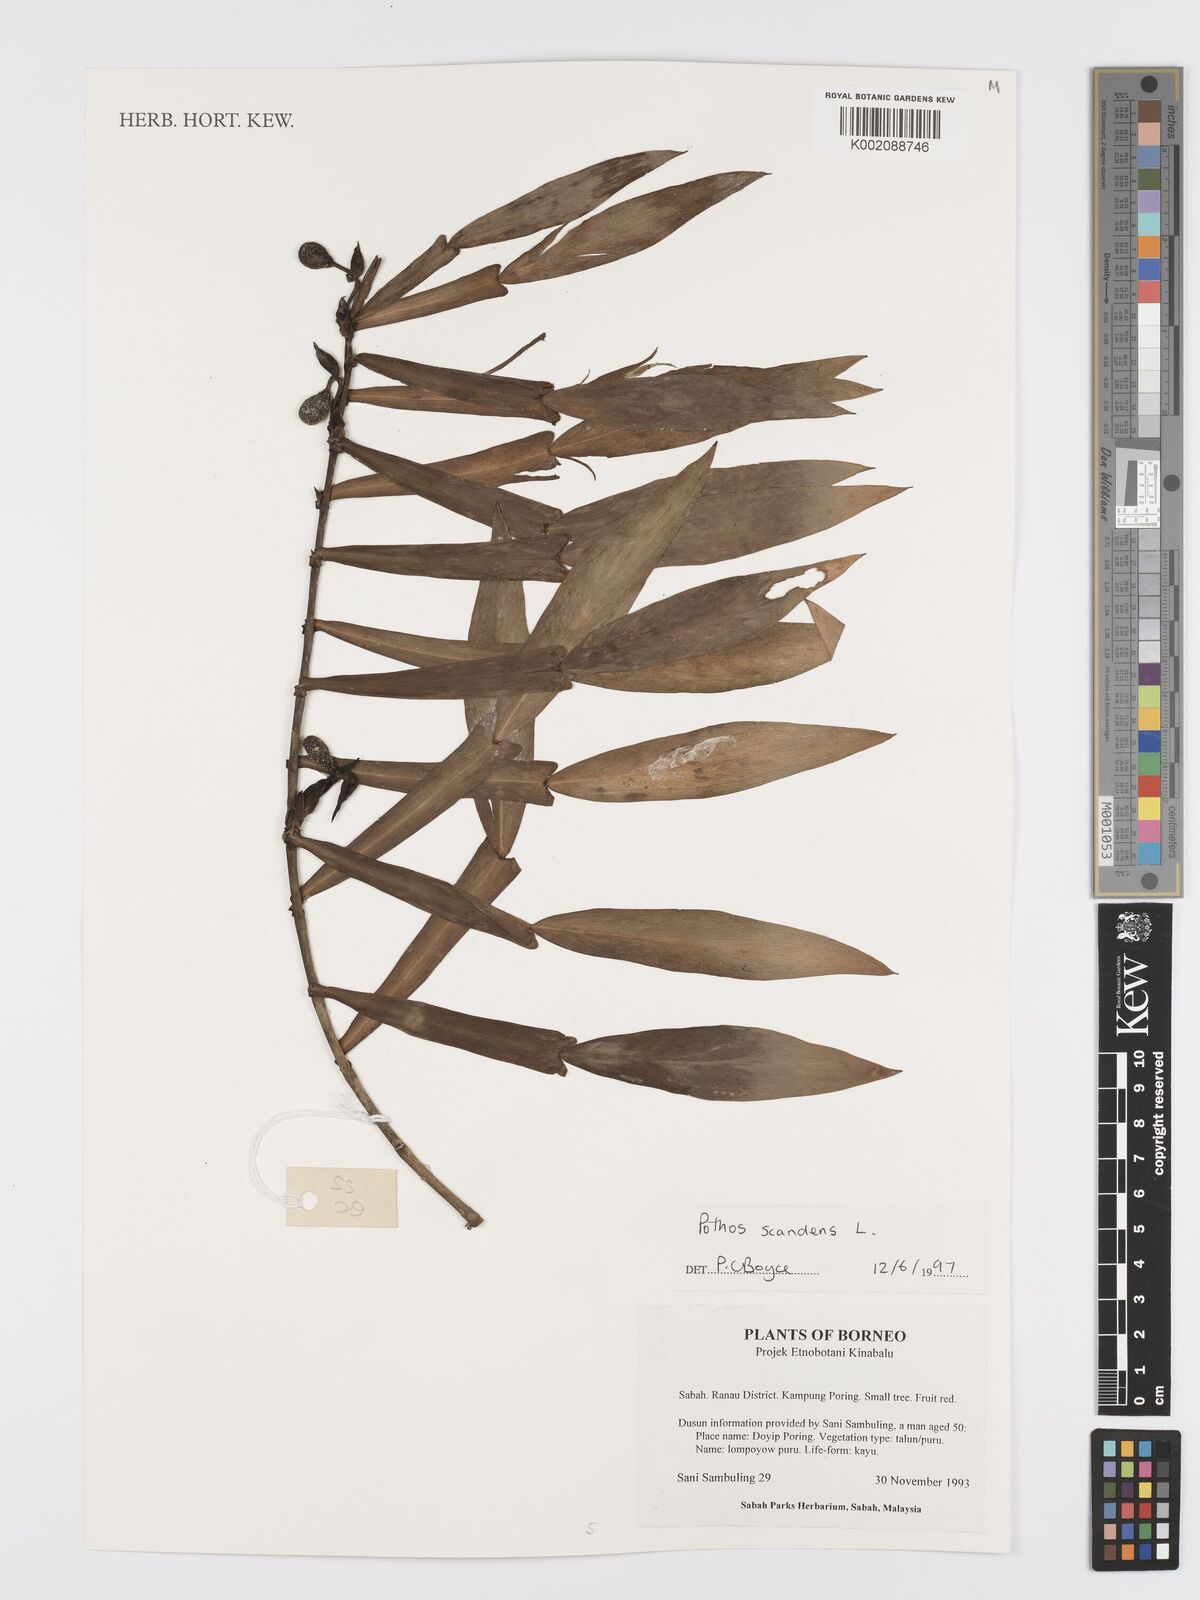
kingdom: Plantae
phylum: Tracheophyta
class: Liliopsida
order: Alismatales
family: Araceae
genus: Pothos
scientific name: Pothos scandens
